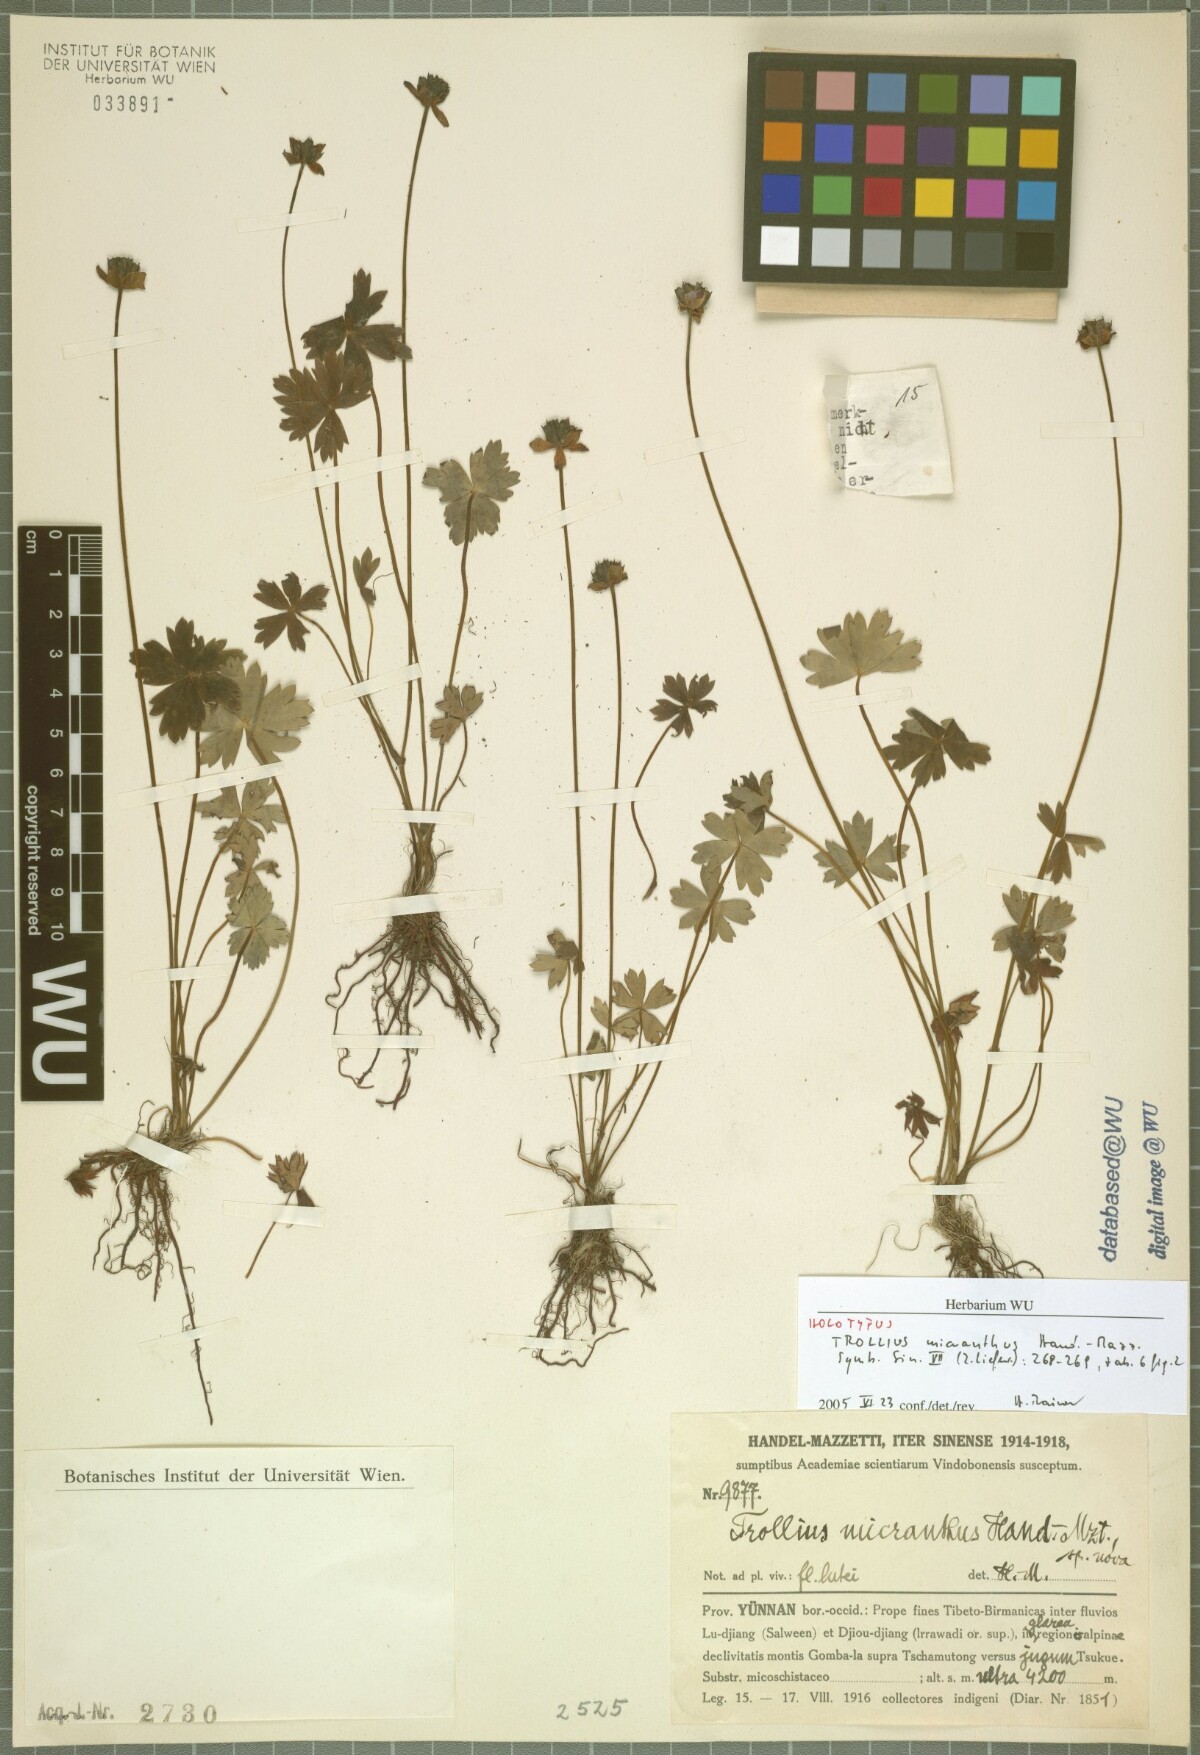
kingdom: Plantae
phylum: Tracheophyta
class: Magnoliopsida
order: Ranunculales
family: Ranunculaceae
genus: Trollius
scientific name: Trollius micranthus
